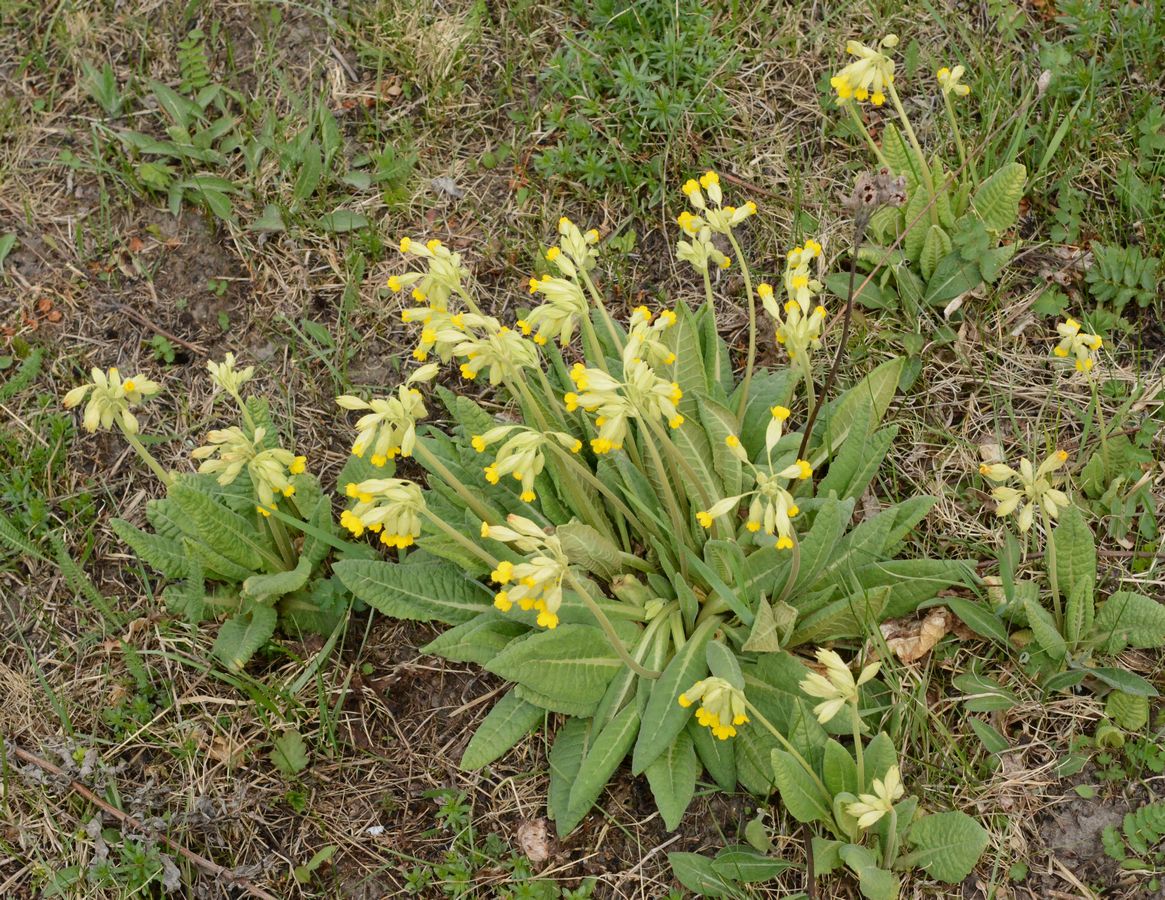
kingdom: Plantae
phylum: Tracheophyta
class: Magnoliopsida
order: Ericales
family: Primulaceae
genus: Primula
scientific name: Primula veris
